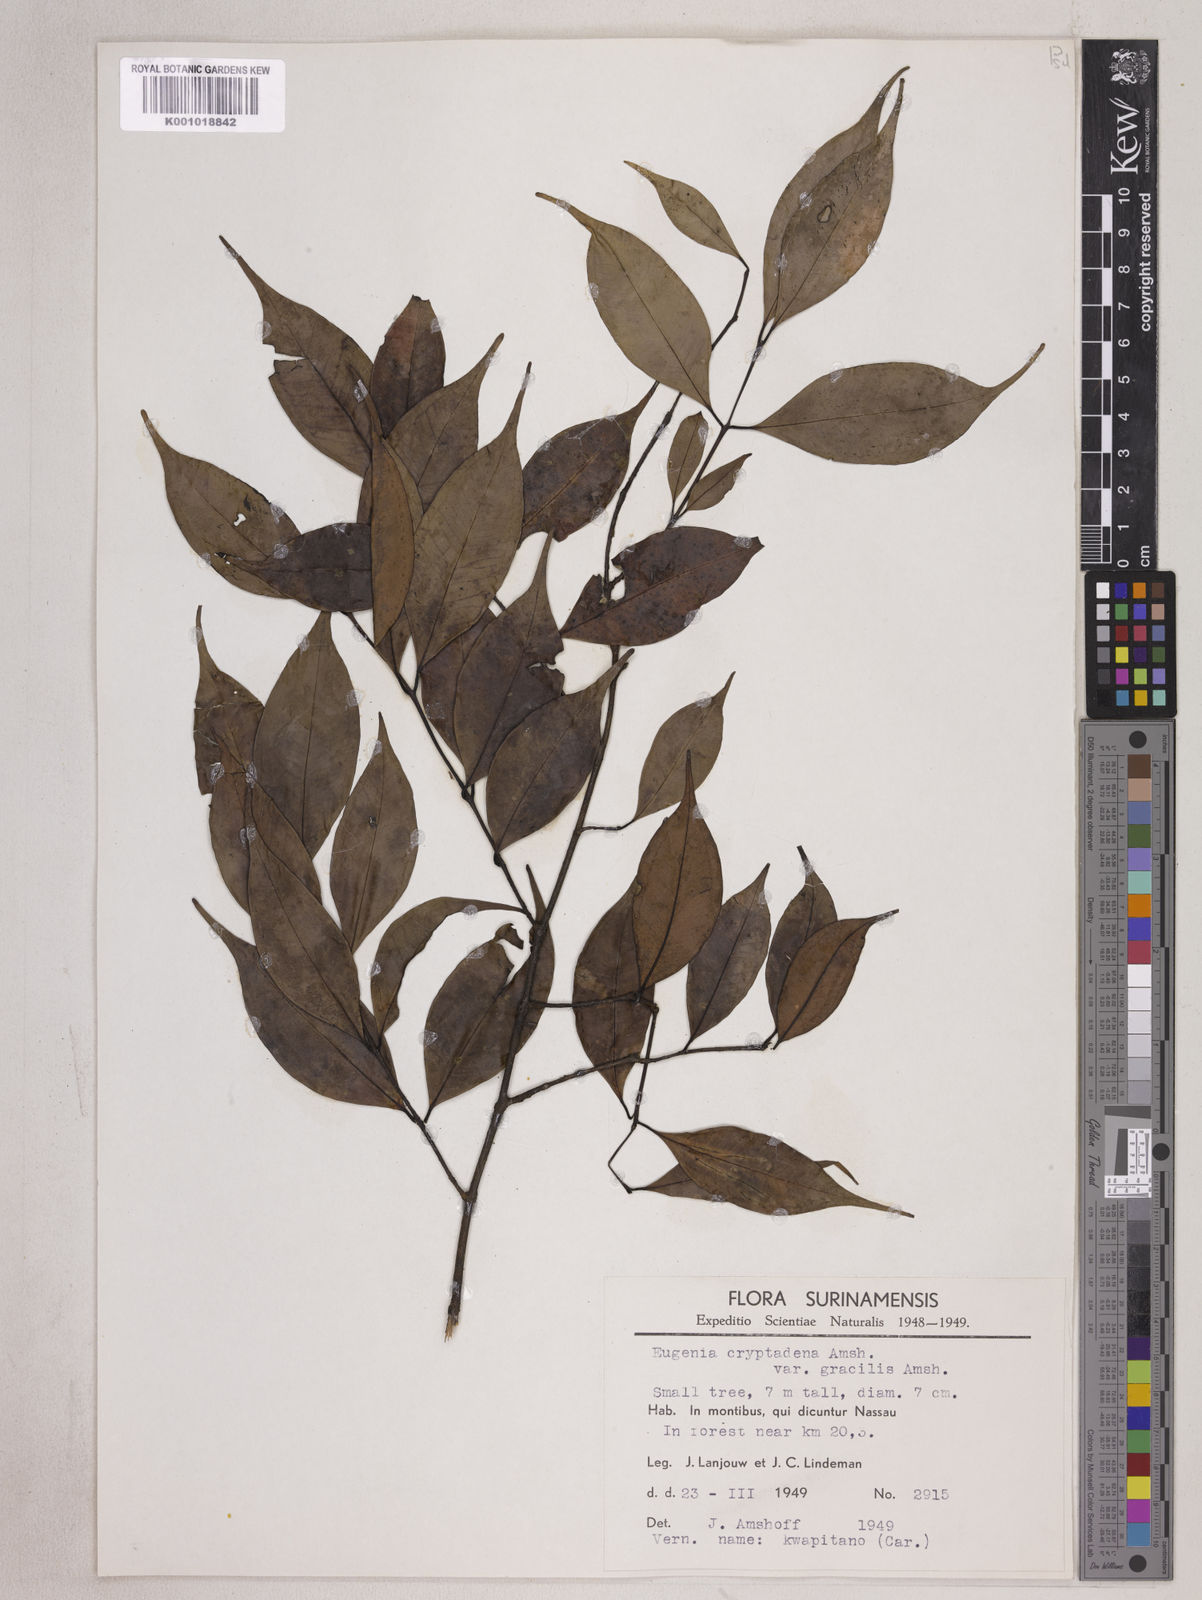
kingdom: Plantae
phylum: Tracheophyta
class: Magnoliopsida
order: Myrtales
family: Myrtaceae
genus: Eugenia
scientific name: Eugenia cowanii
